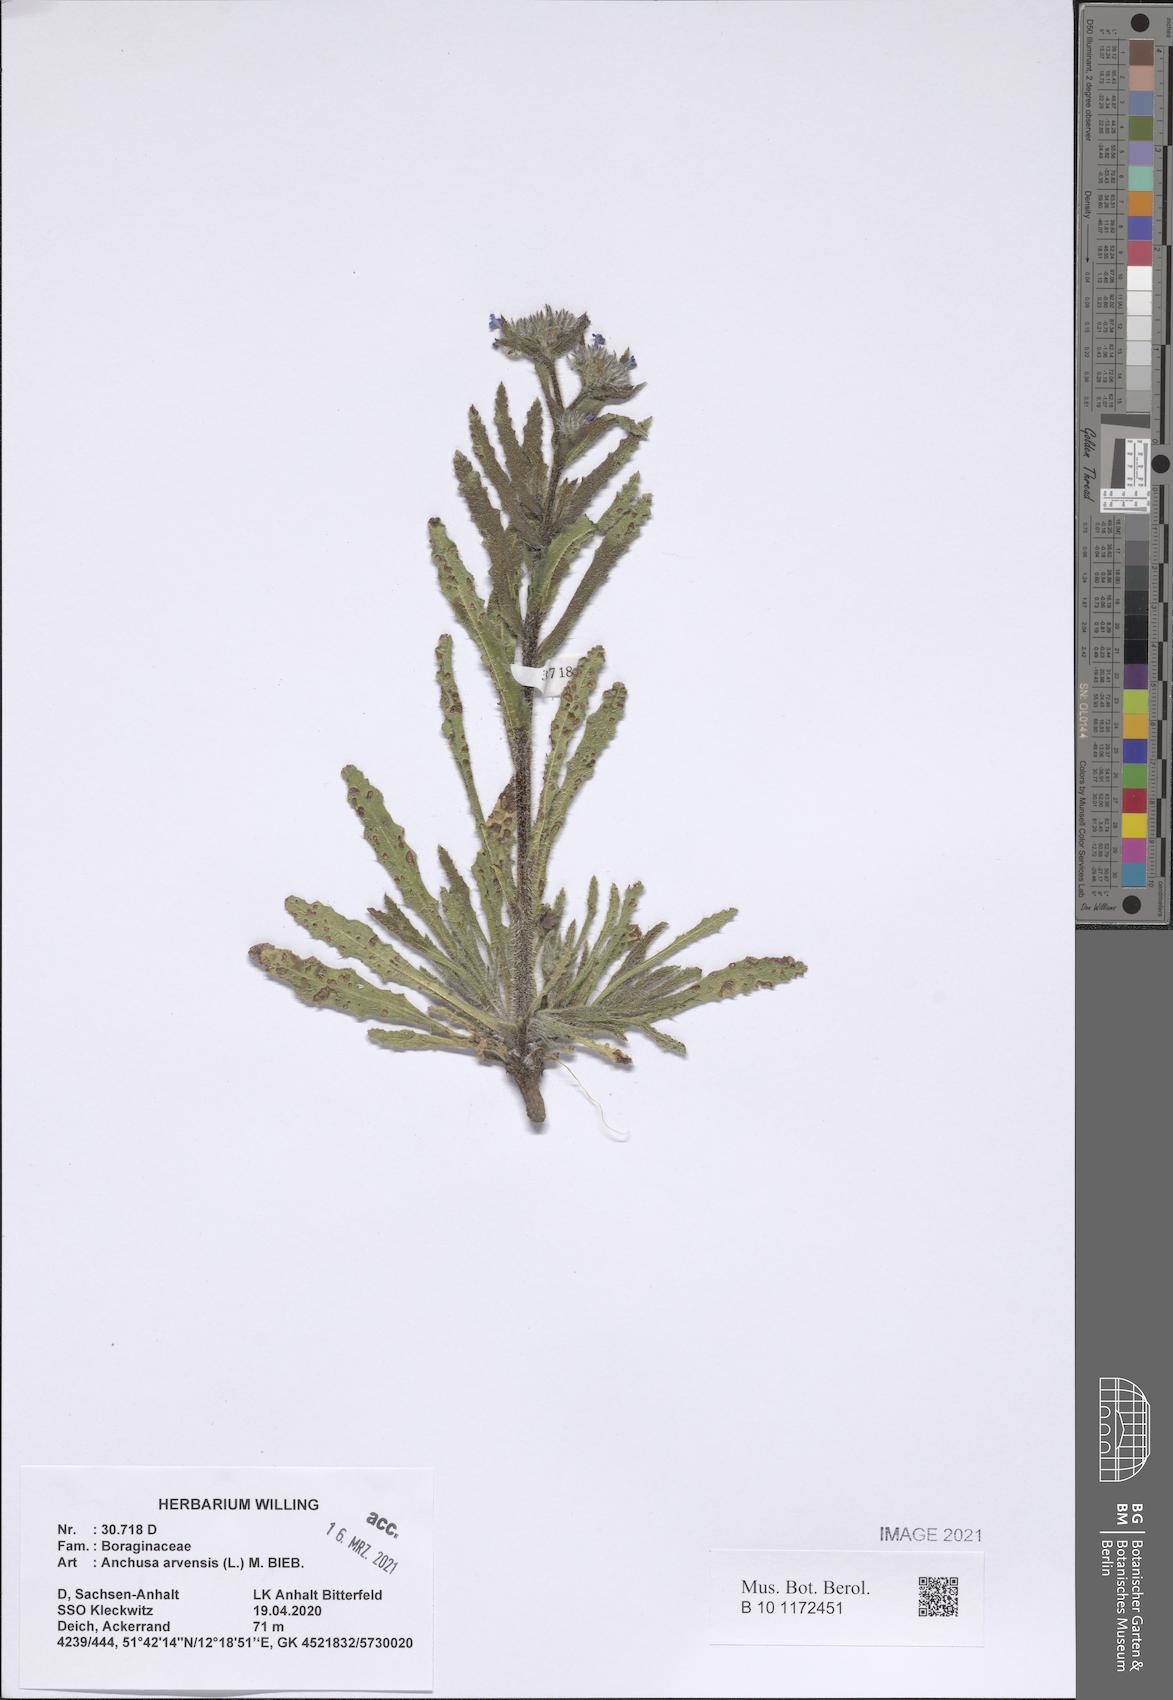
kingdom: Plantae
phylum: Tracheophyta
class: Magnoliopsida
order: Boraginales
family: Boraginaceae
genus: Lycopsis
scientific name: Lycopsis arvensis
